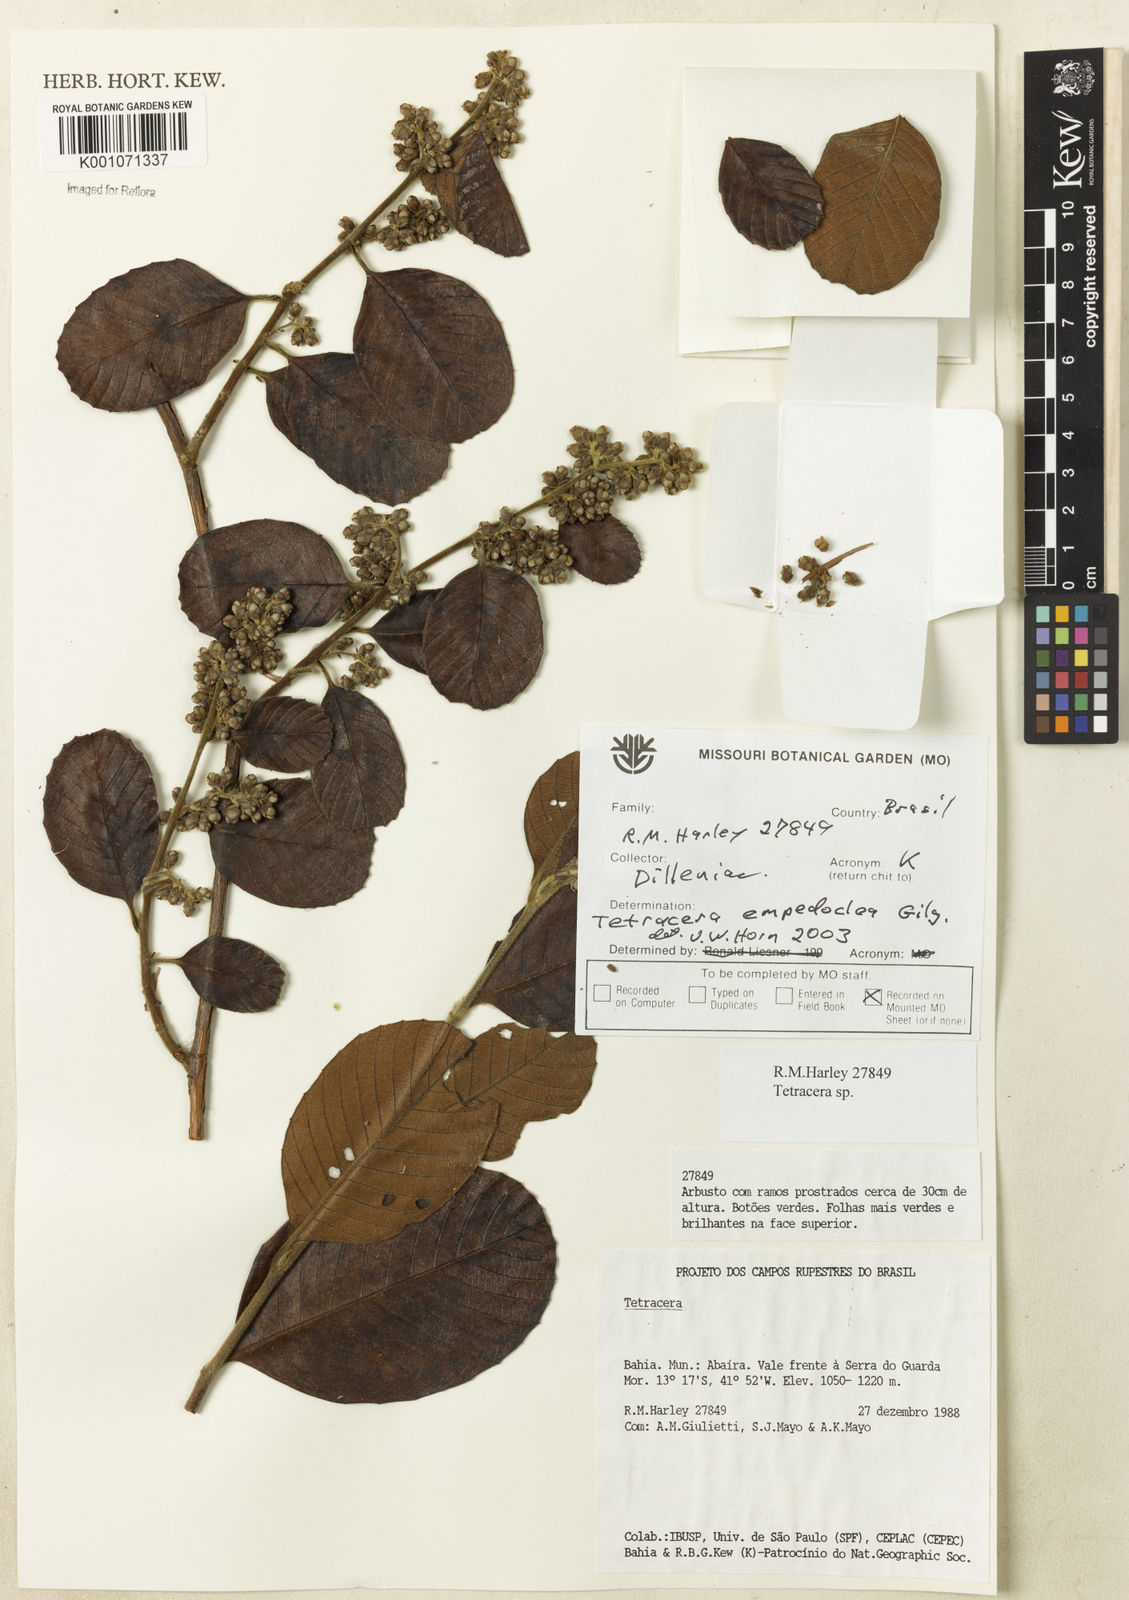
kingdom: Plantae
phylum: Tracheophyta
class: Magnoliopsida
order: Dilleniales
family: Dilleniaceae
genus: Tetracera
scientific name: Tetracera empedoclea
